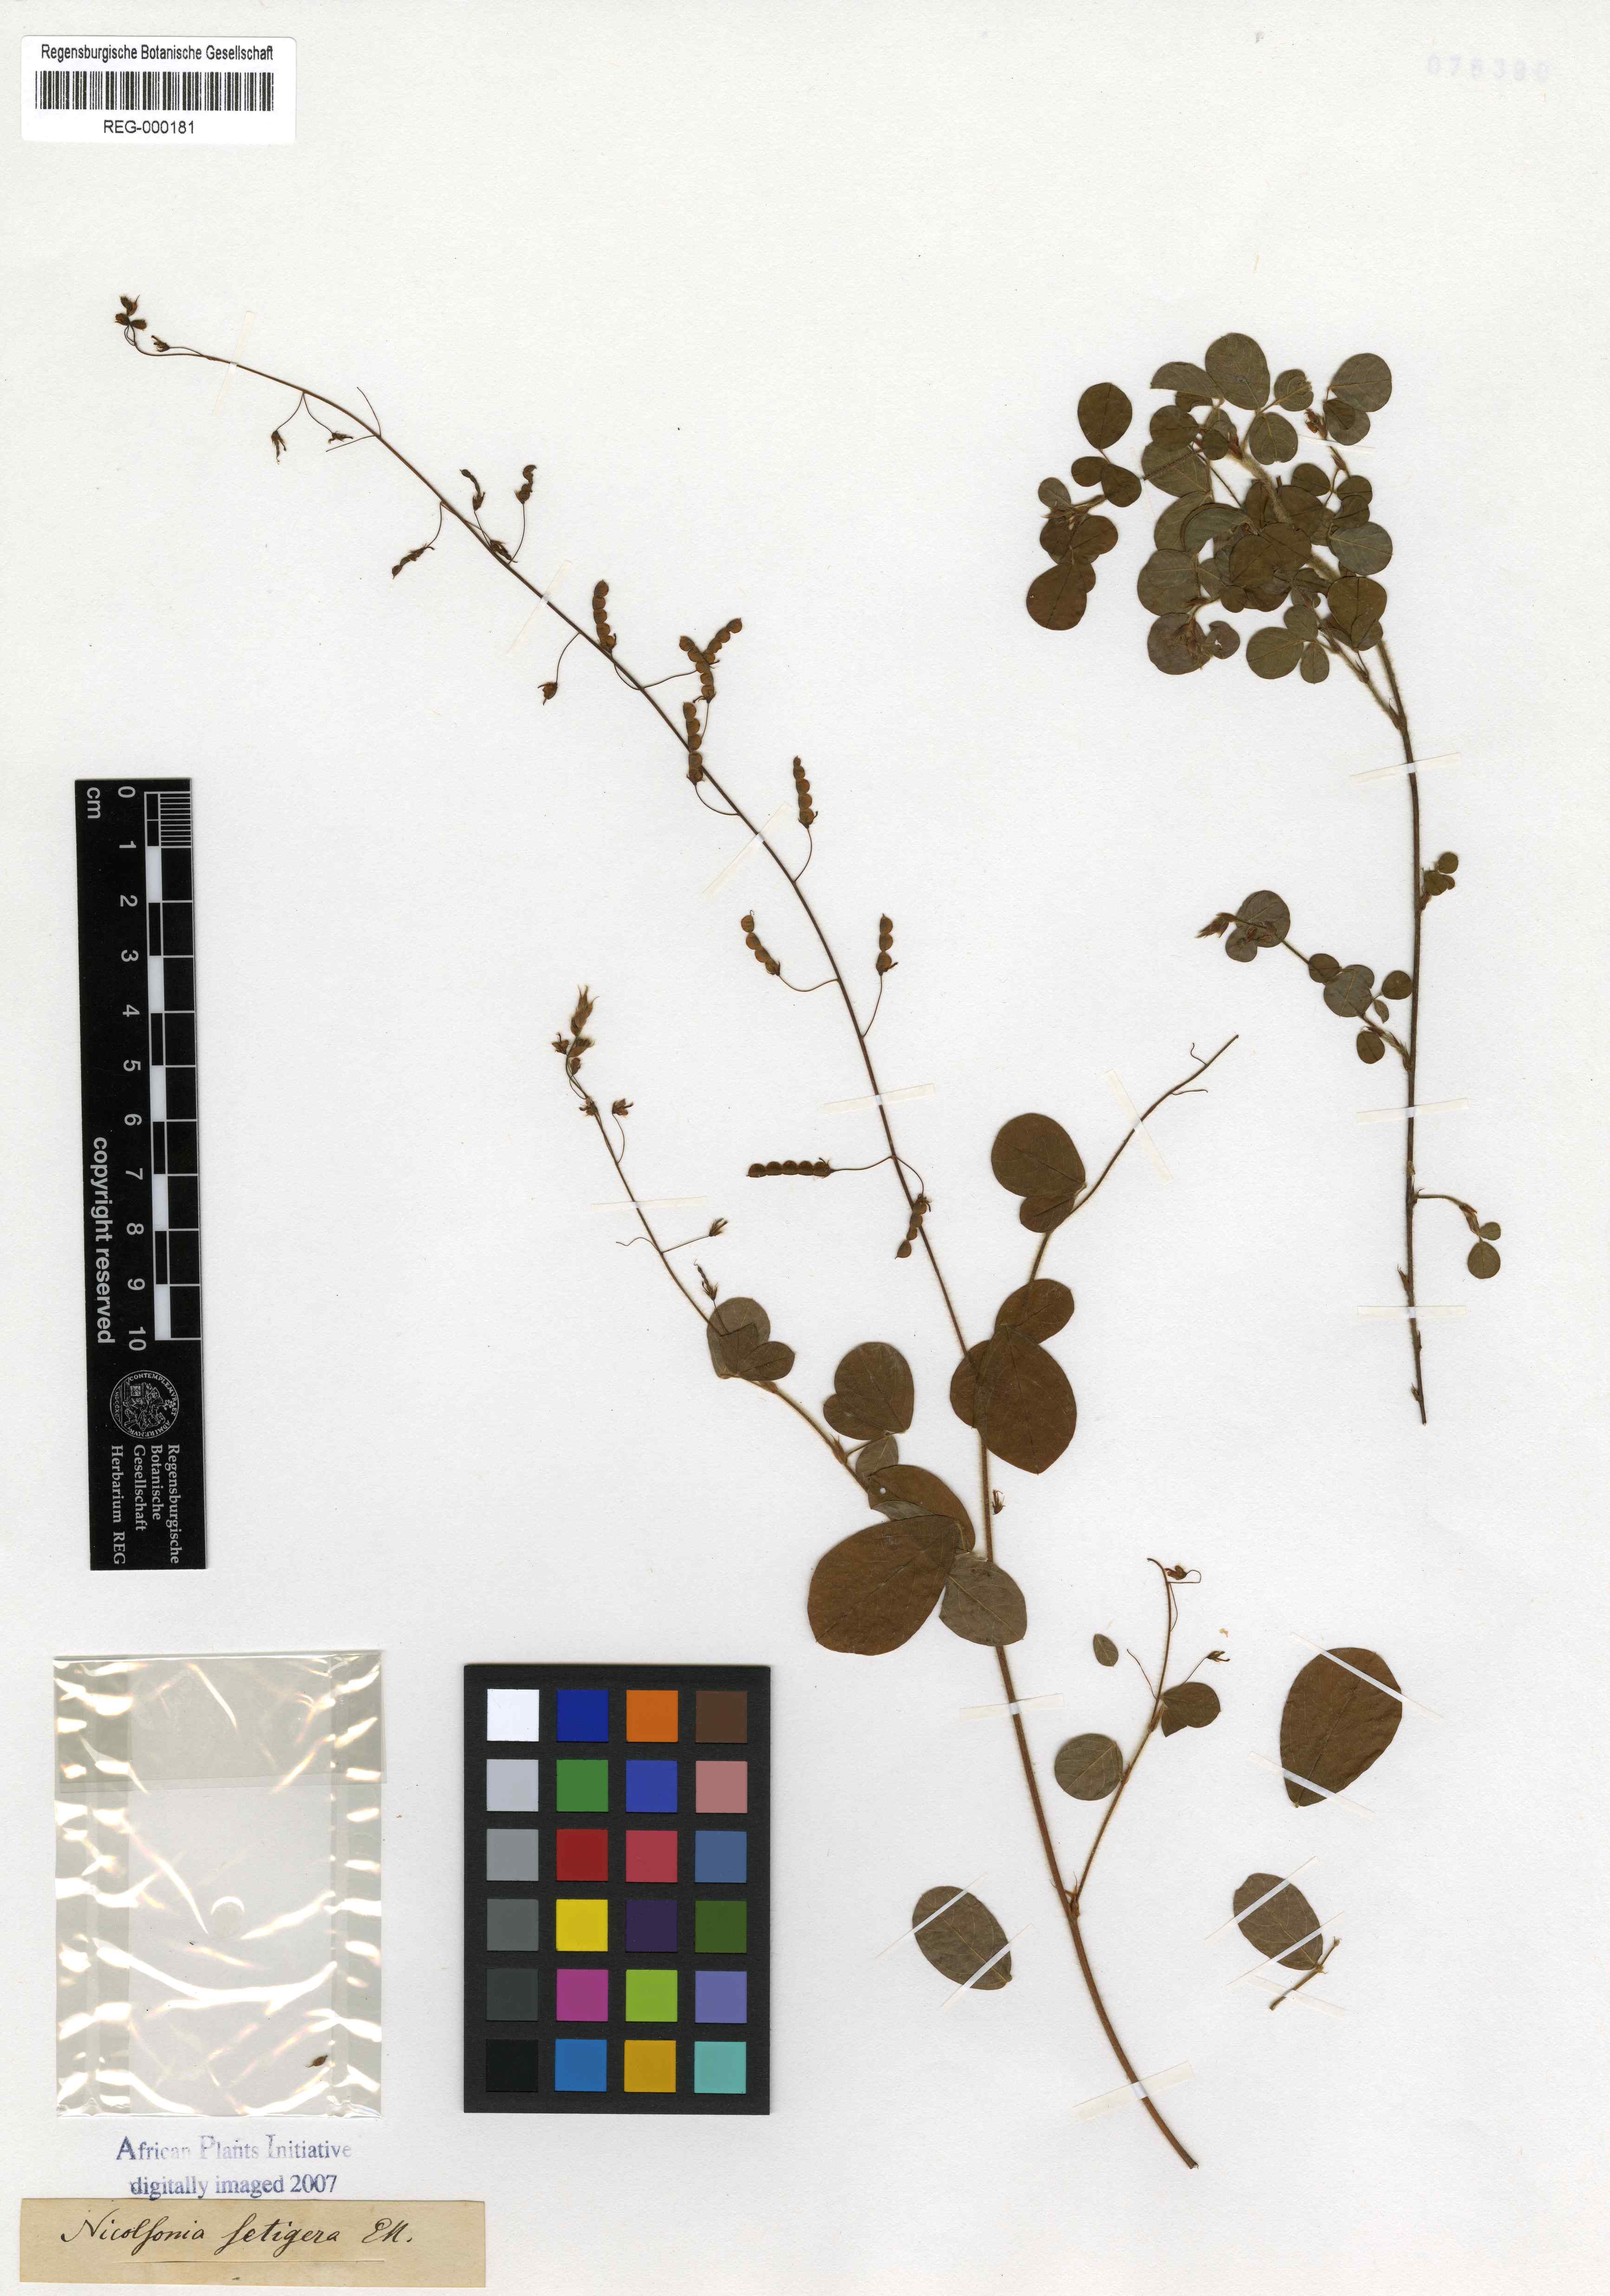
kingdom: Plantae
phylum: Tracheophyta
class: Magnoliopsida
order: Fabales
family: Fabaceae
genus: Grona
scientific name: Grona setigera
